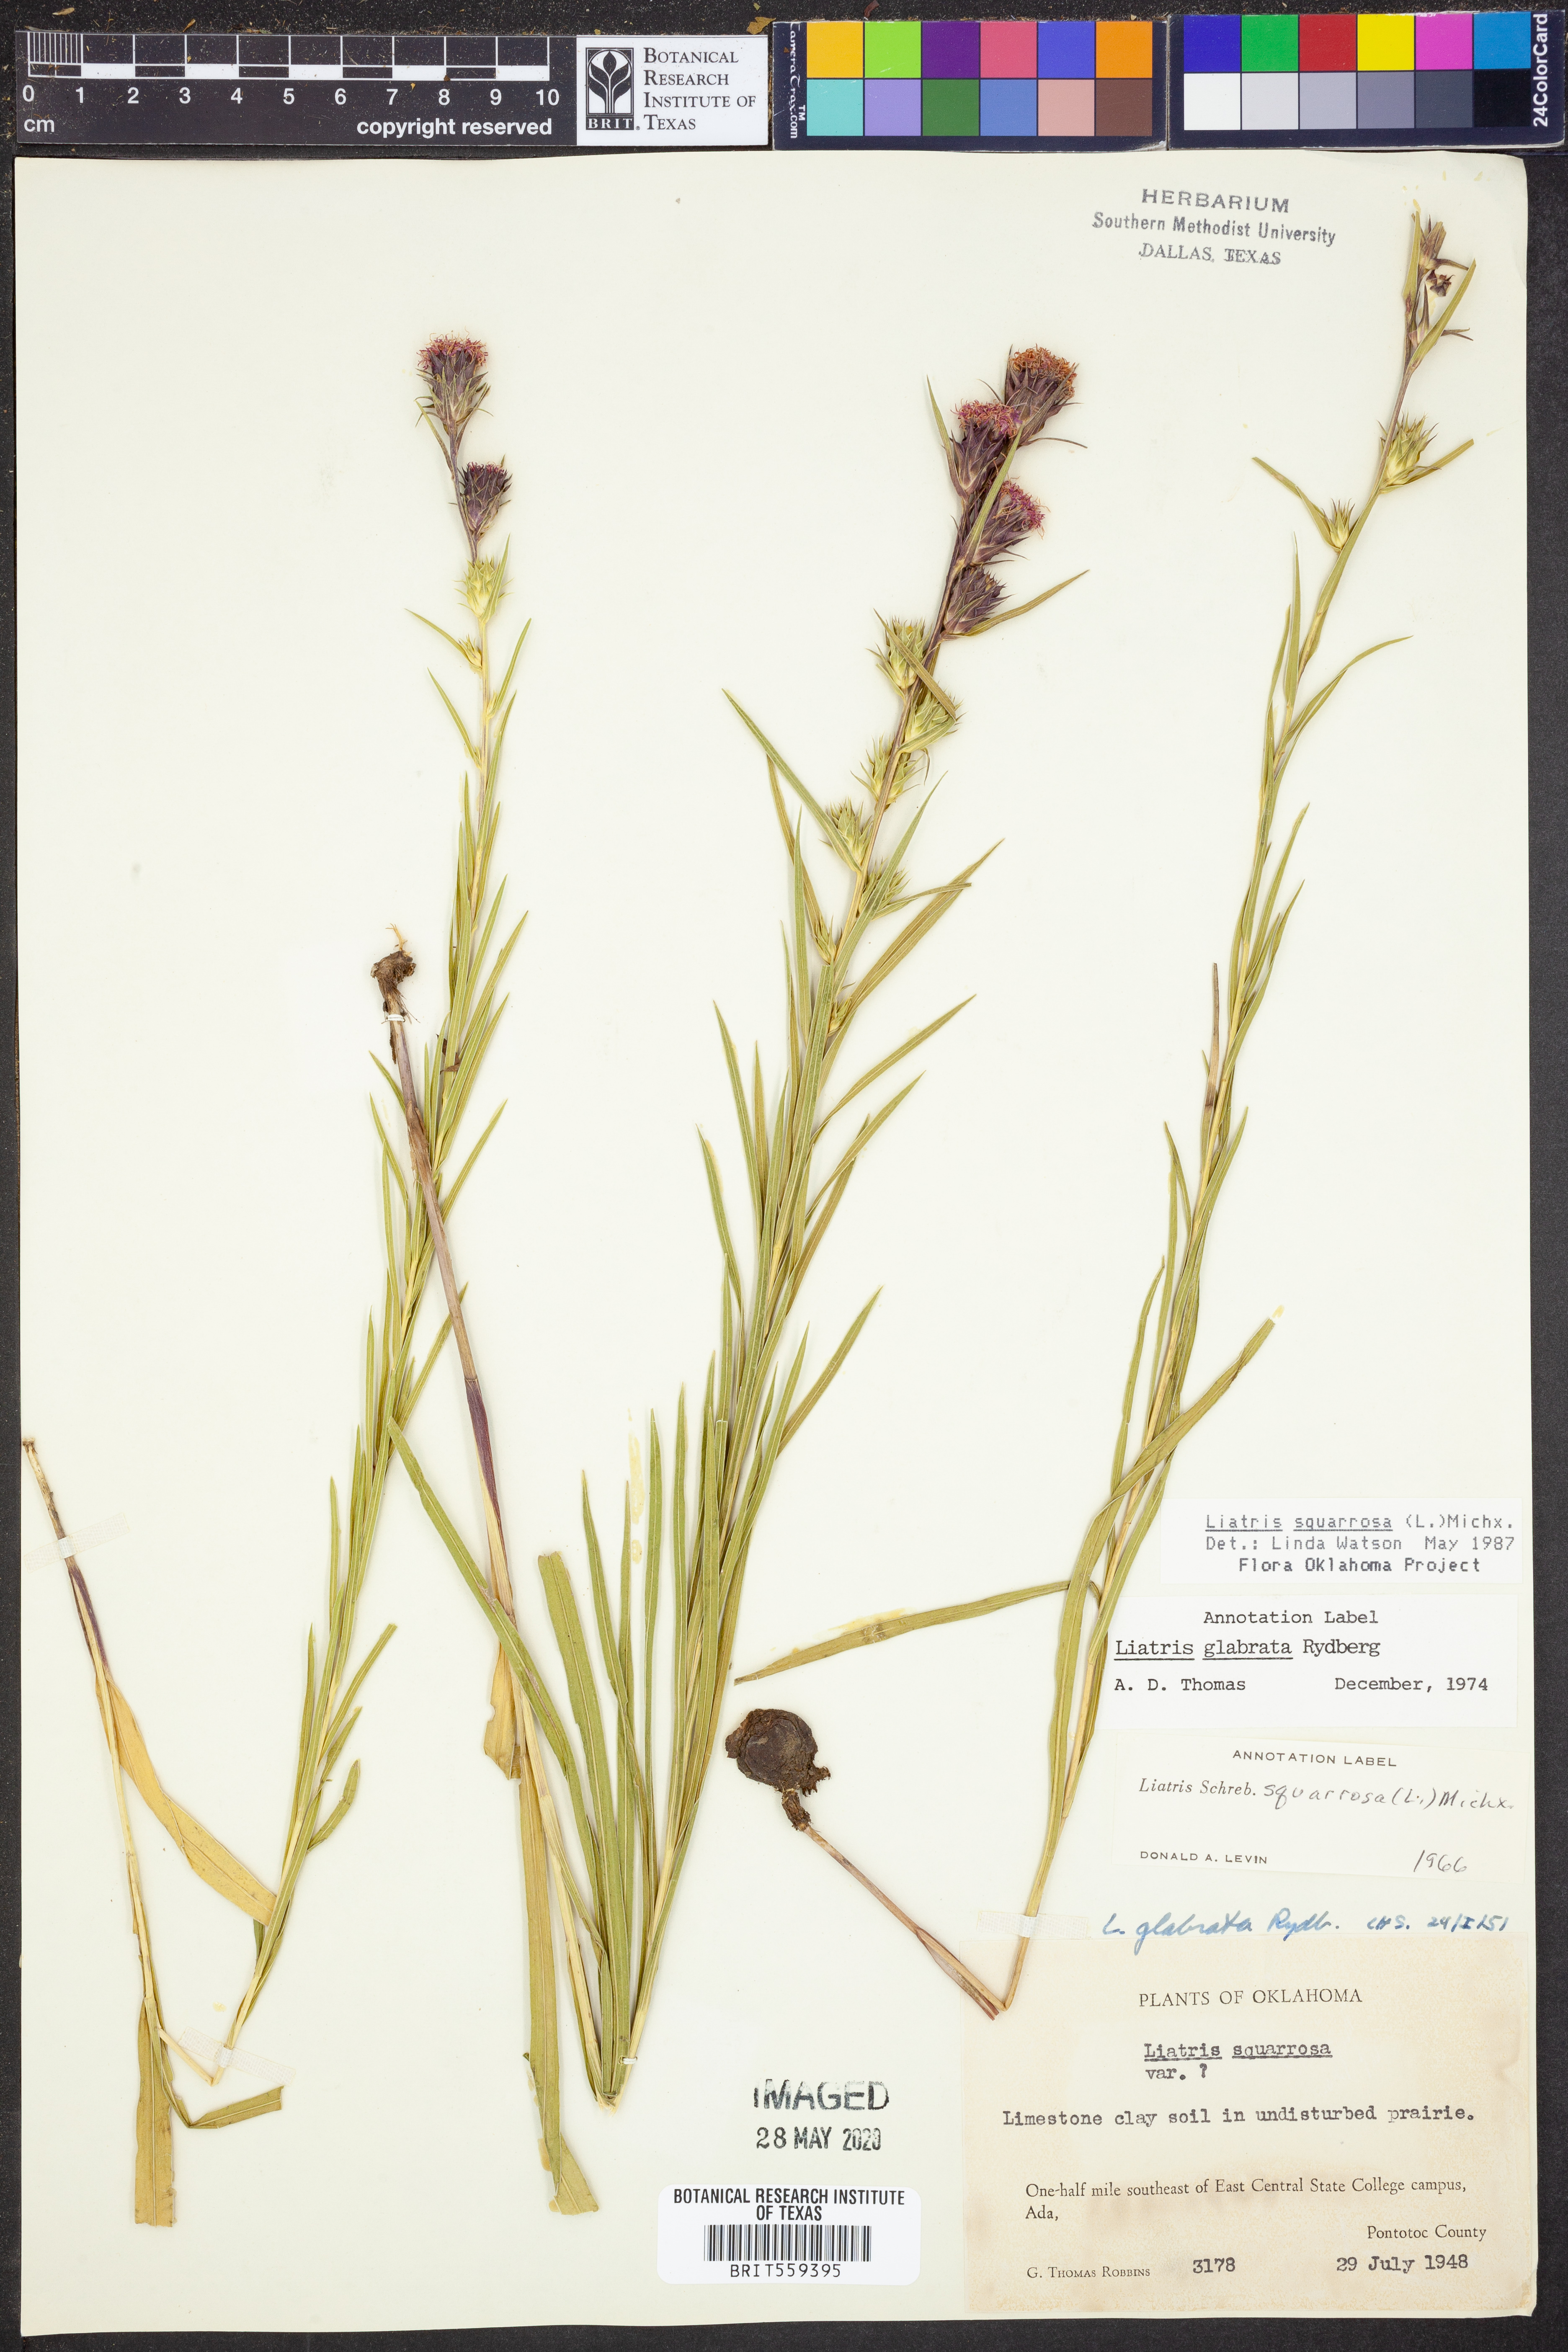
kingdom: Plantae
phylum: Tracheophyta
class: Magnoliopsida
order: Asterales
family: Asteraceae
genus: Liatris
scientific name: Liatris squarrosa
